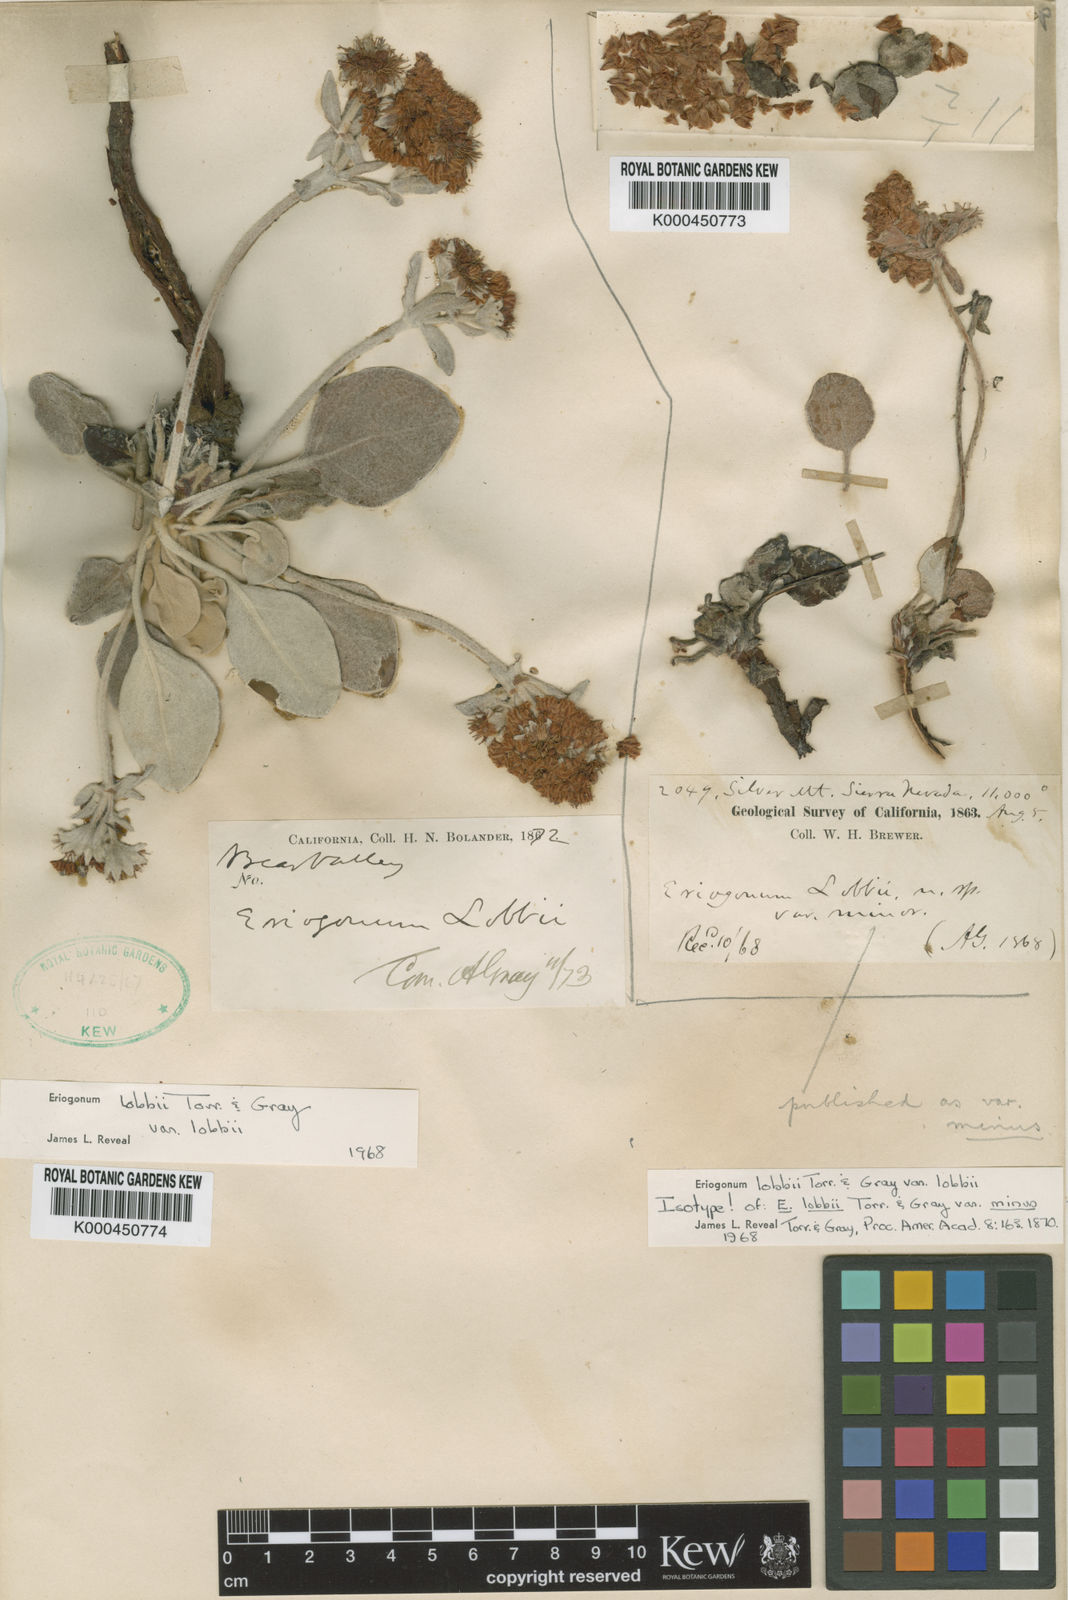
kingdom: Plantae
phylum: Tracheophyta
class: Magnoliopsida
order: Caryophyllales
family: Polygonaceae
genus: Eriogonum
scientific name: Eriogonum lobbii
